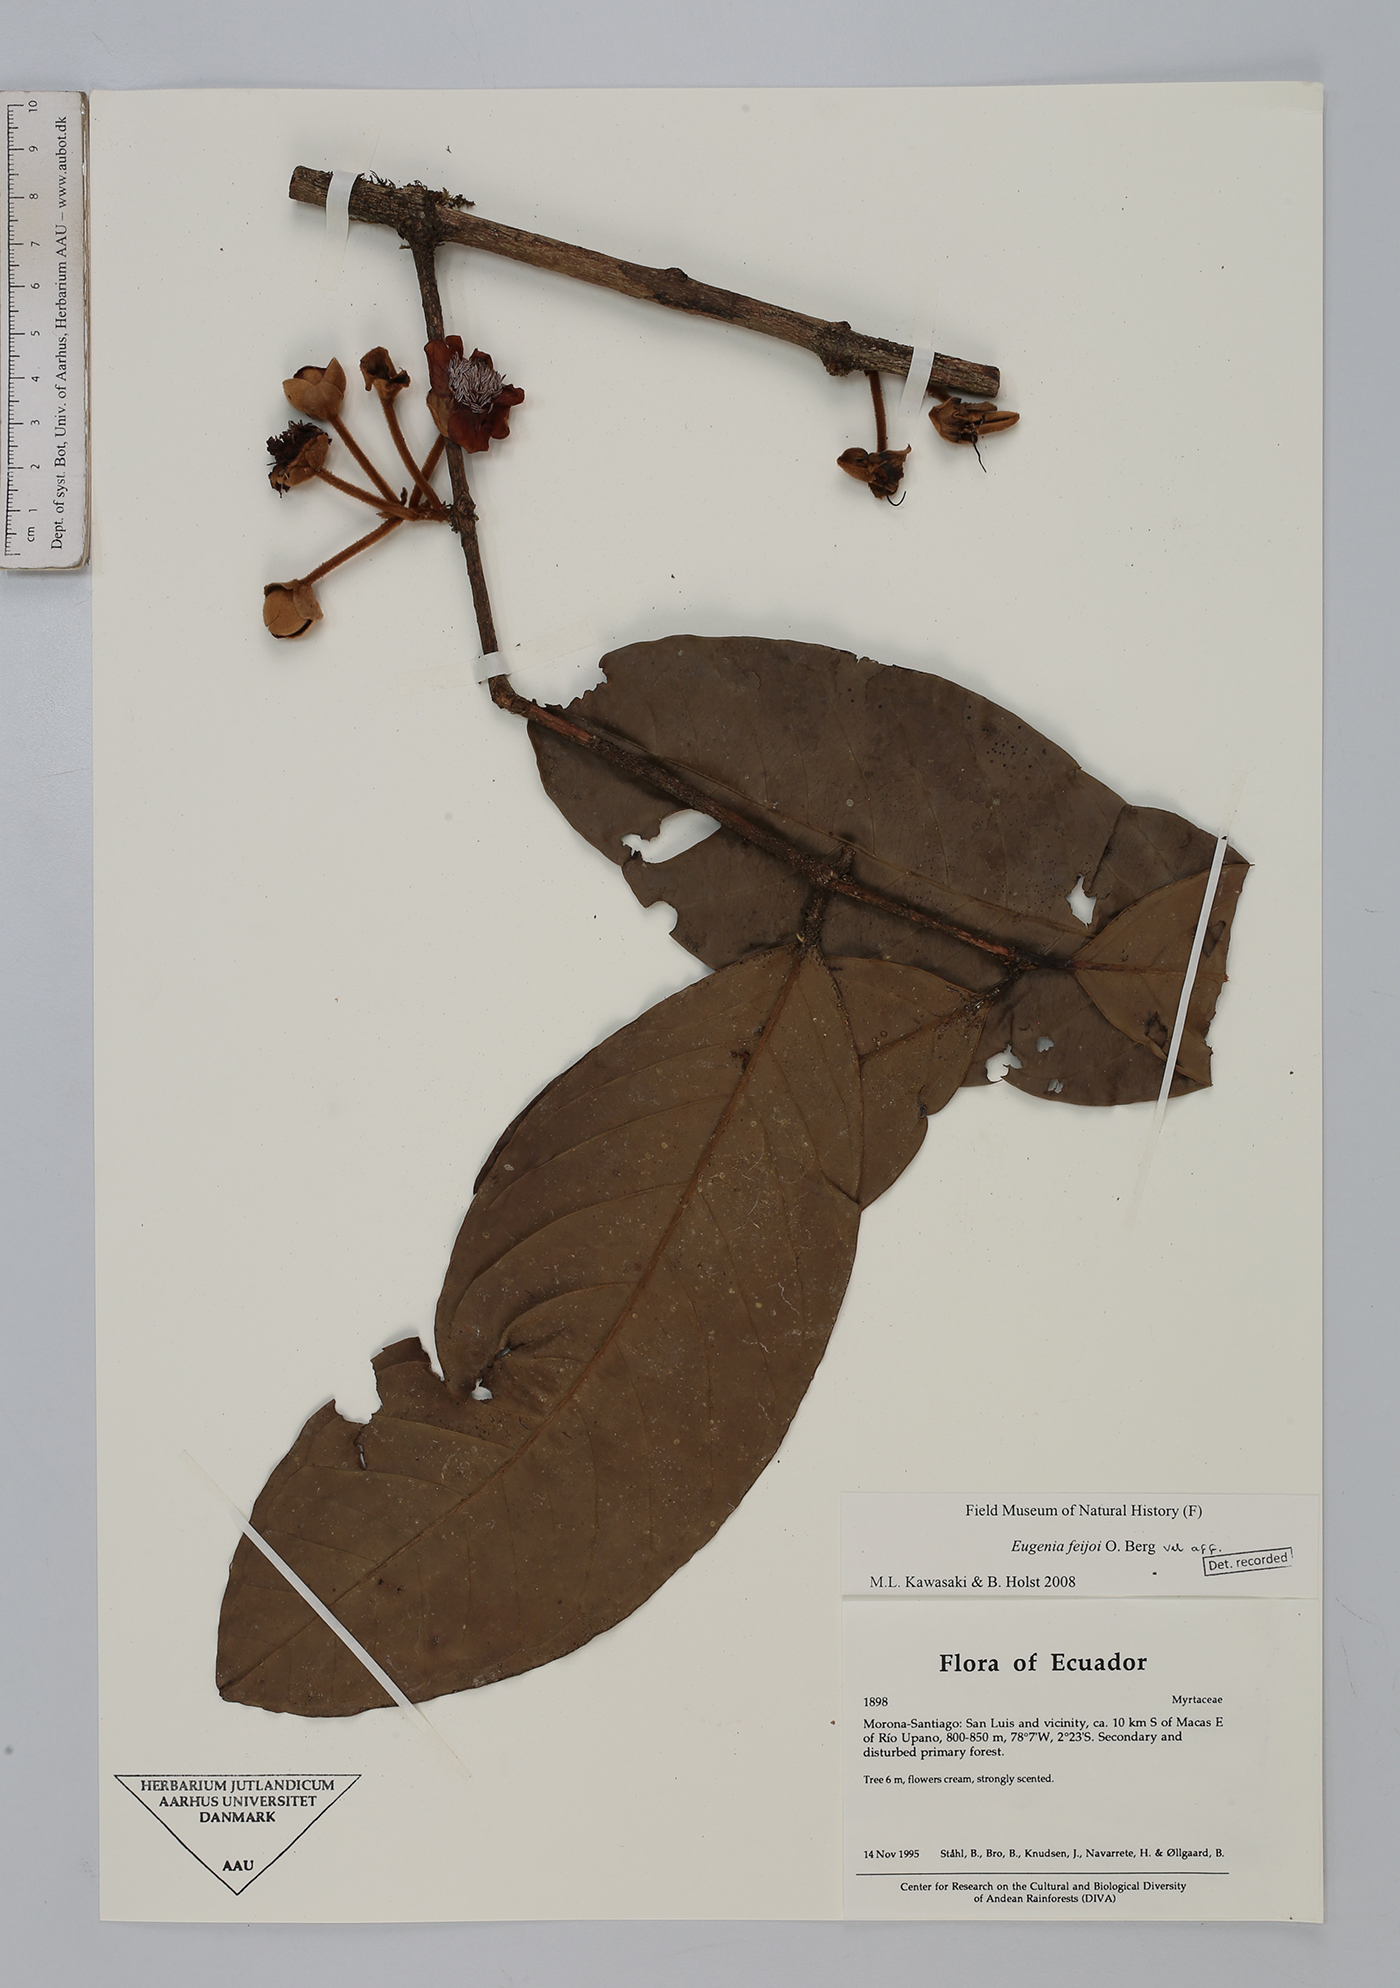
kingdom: Plantae
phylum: Tracheophyta
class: Magnoliopsida
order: Myrtales
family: Myrtaceae
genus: Eugenia
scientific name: Eugenia feijoi
